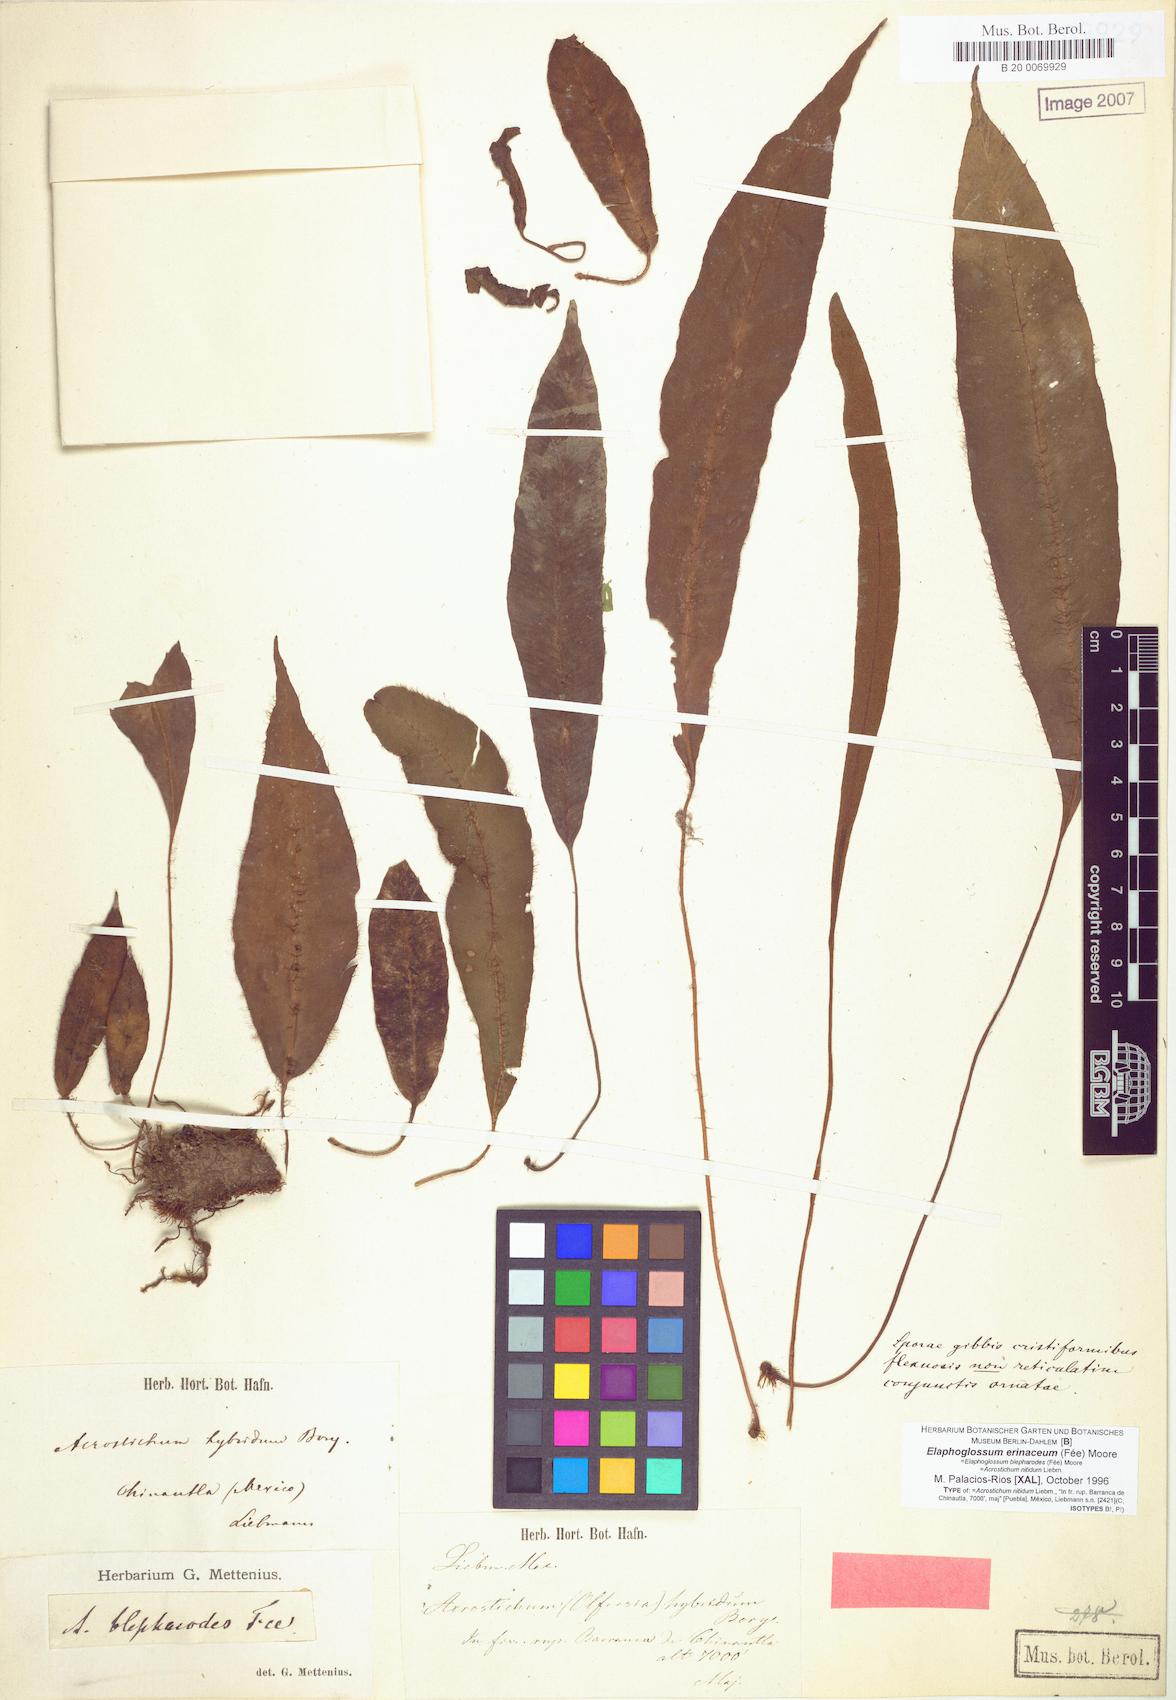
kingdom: Plantae
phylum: Tracheophyta
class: Polypodiopsida
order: Polypodiales
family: Dryopteridaceae
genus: Elaphoglossum
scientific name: Elaphoglossum erinaceum
